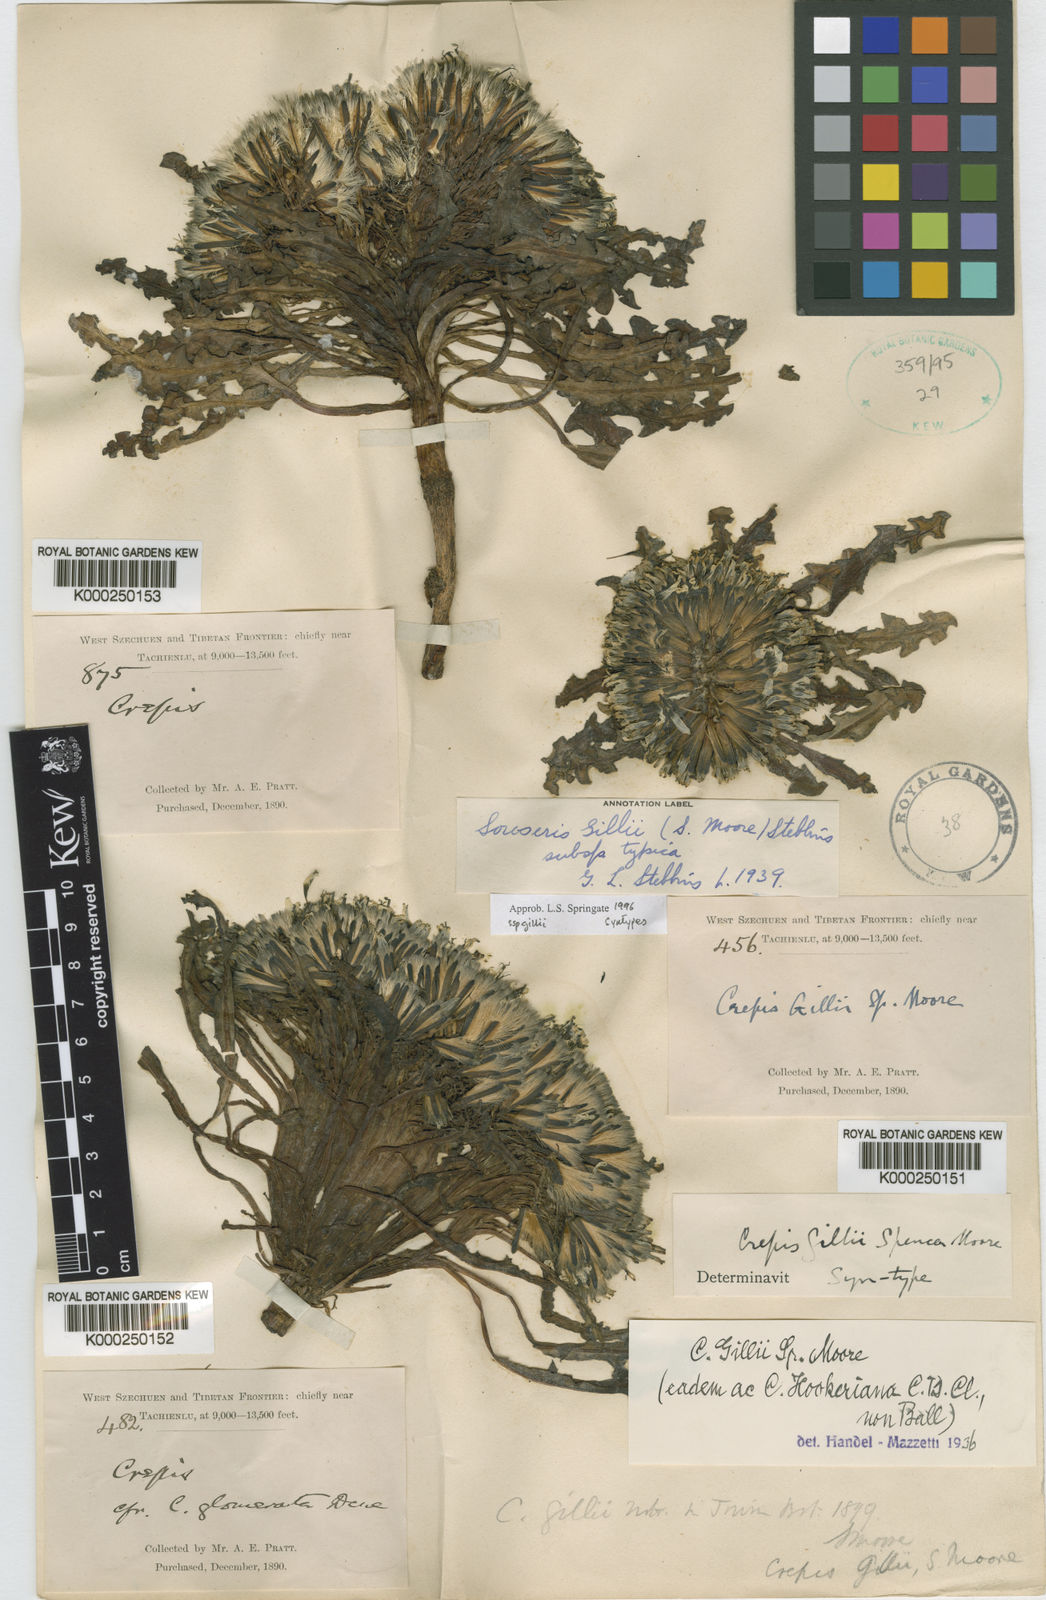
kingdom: Plantae
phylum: Tracheophyta
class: Magnoliopsida
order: Asterales
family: Asteraceae
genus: Soroseris
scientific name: Soroseris trichocarpa
